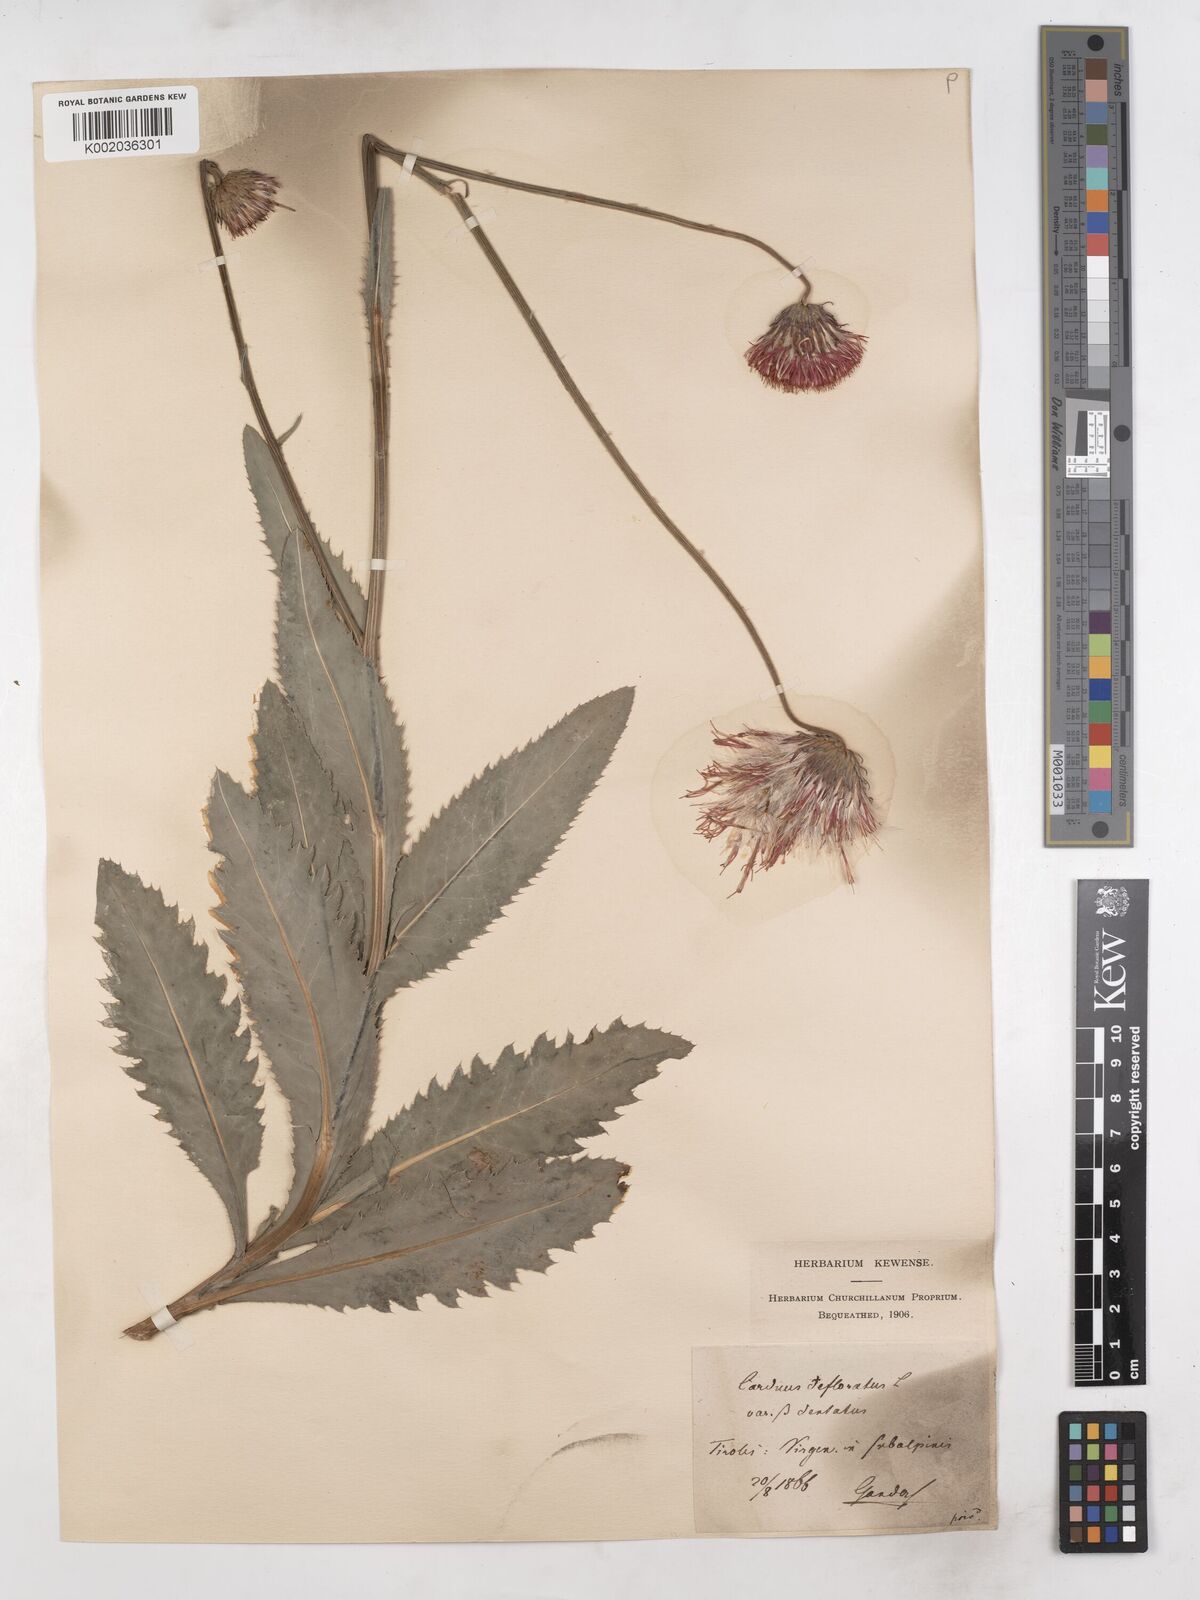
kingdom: Plantae
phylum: Tracheophyta
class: Magnoliopsida
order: Asterales
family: Asteraceae
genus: Carduus
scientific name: Carduus defloratus
